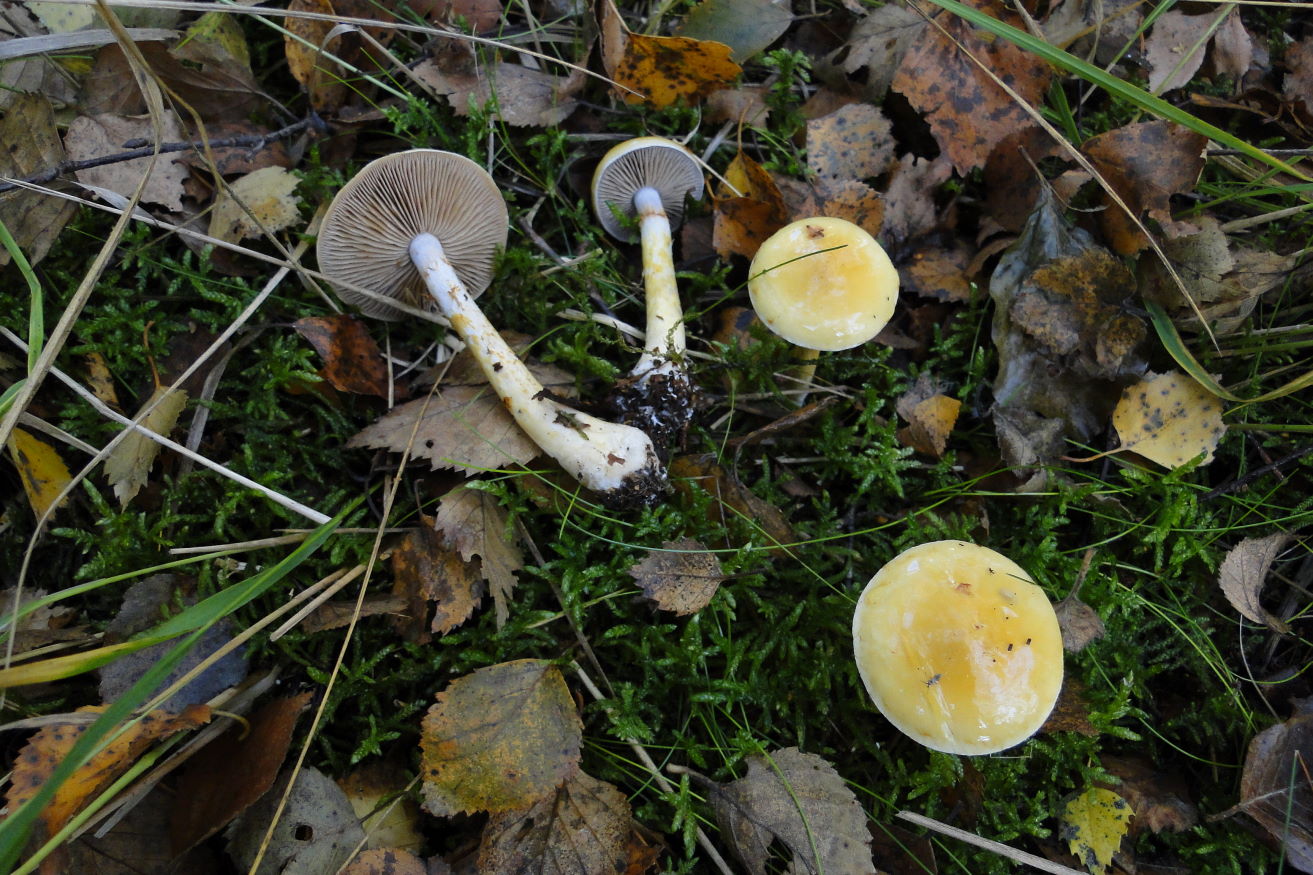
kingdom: Fungi
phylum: Basidiomycota
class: Agaricomycetes
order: Agaricales
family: Cortinariaceae
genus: Cortinarius
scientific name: Cortinarius delibutus
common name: gul slørhat
